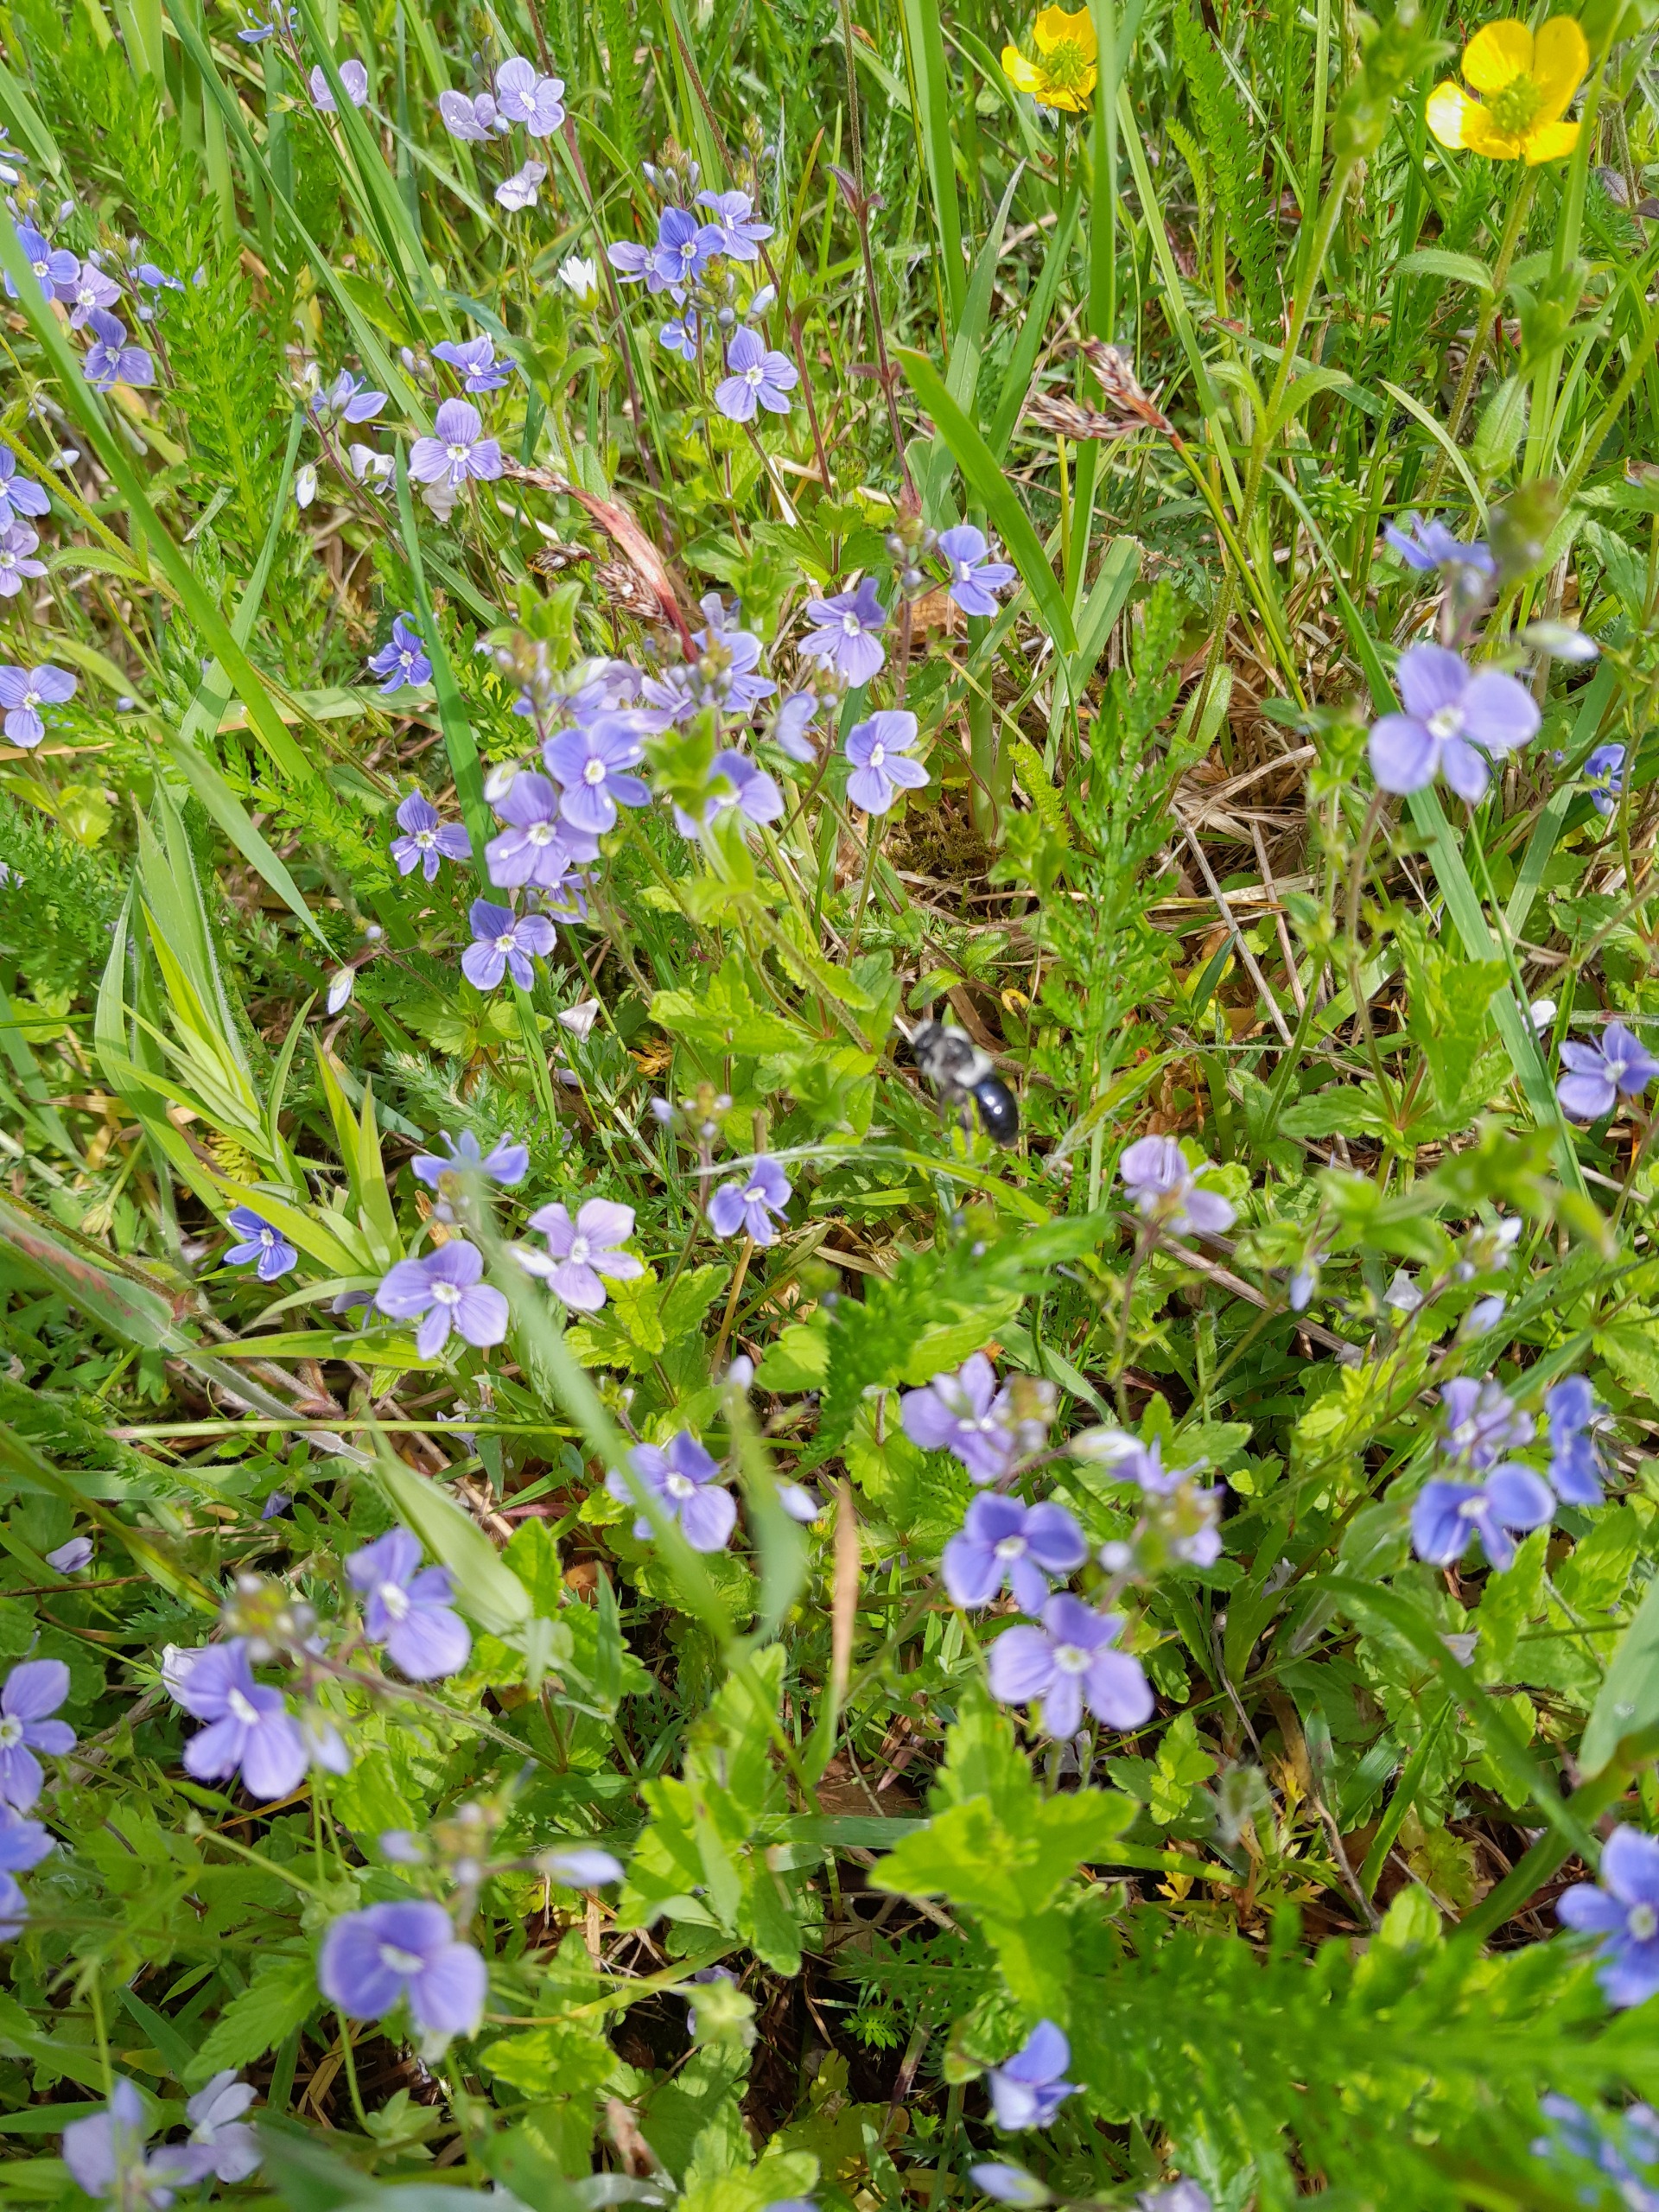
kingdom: Plantae
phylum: Tracheophyta
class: Magnoliopsida
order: Lamiales
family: Plantaginaceae
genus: Veronica
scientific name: Veronica chamaedrys
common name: Tveskægget ærenpris
